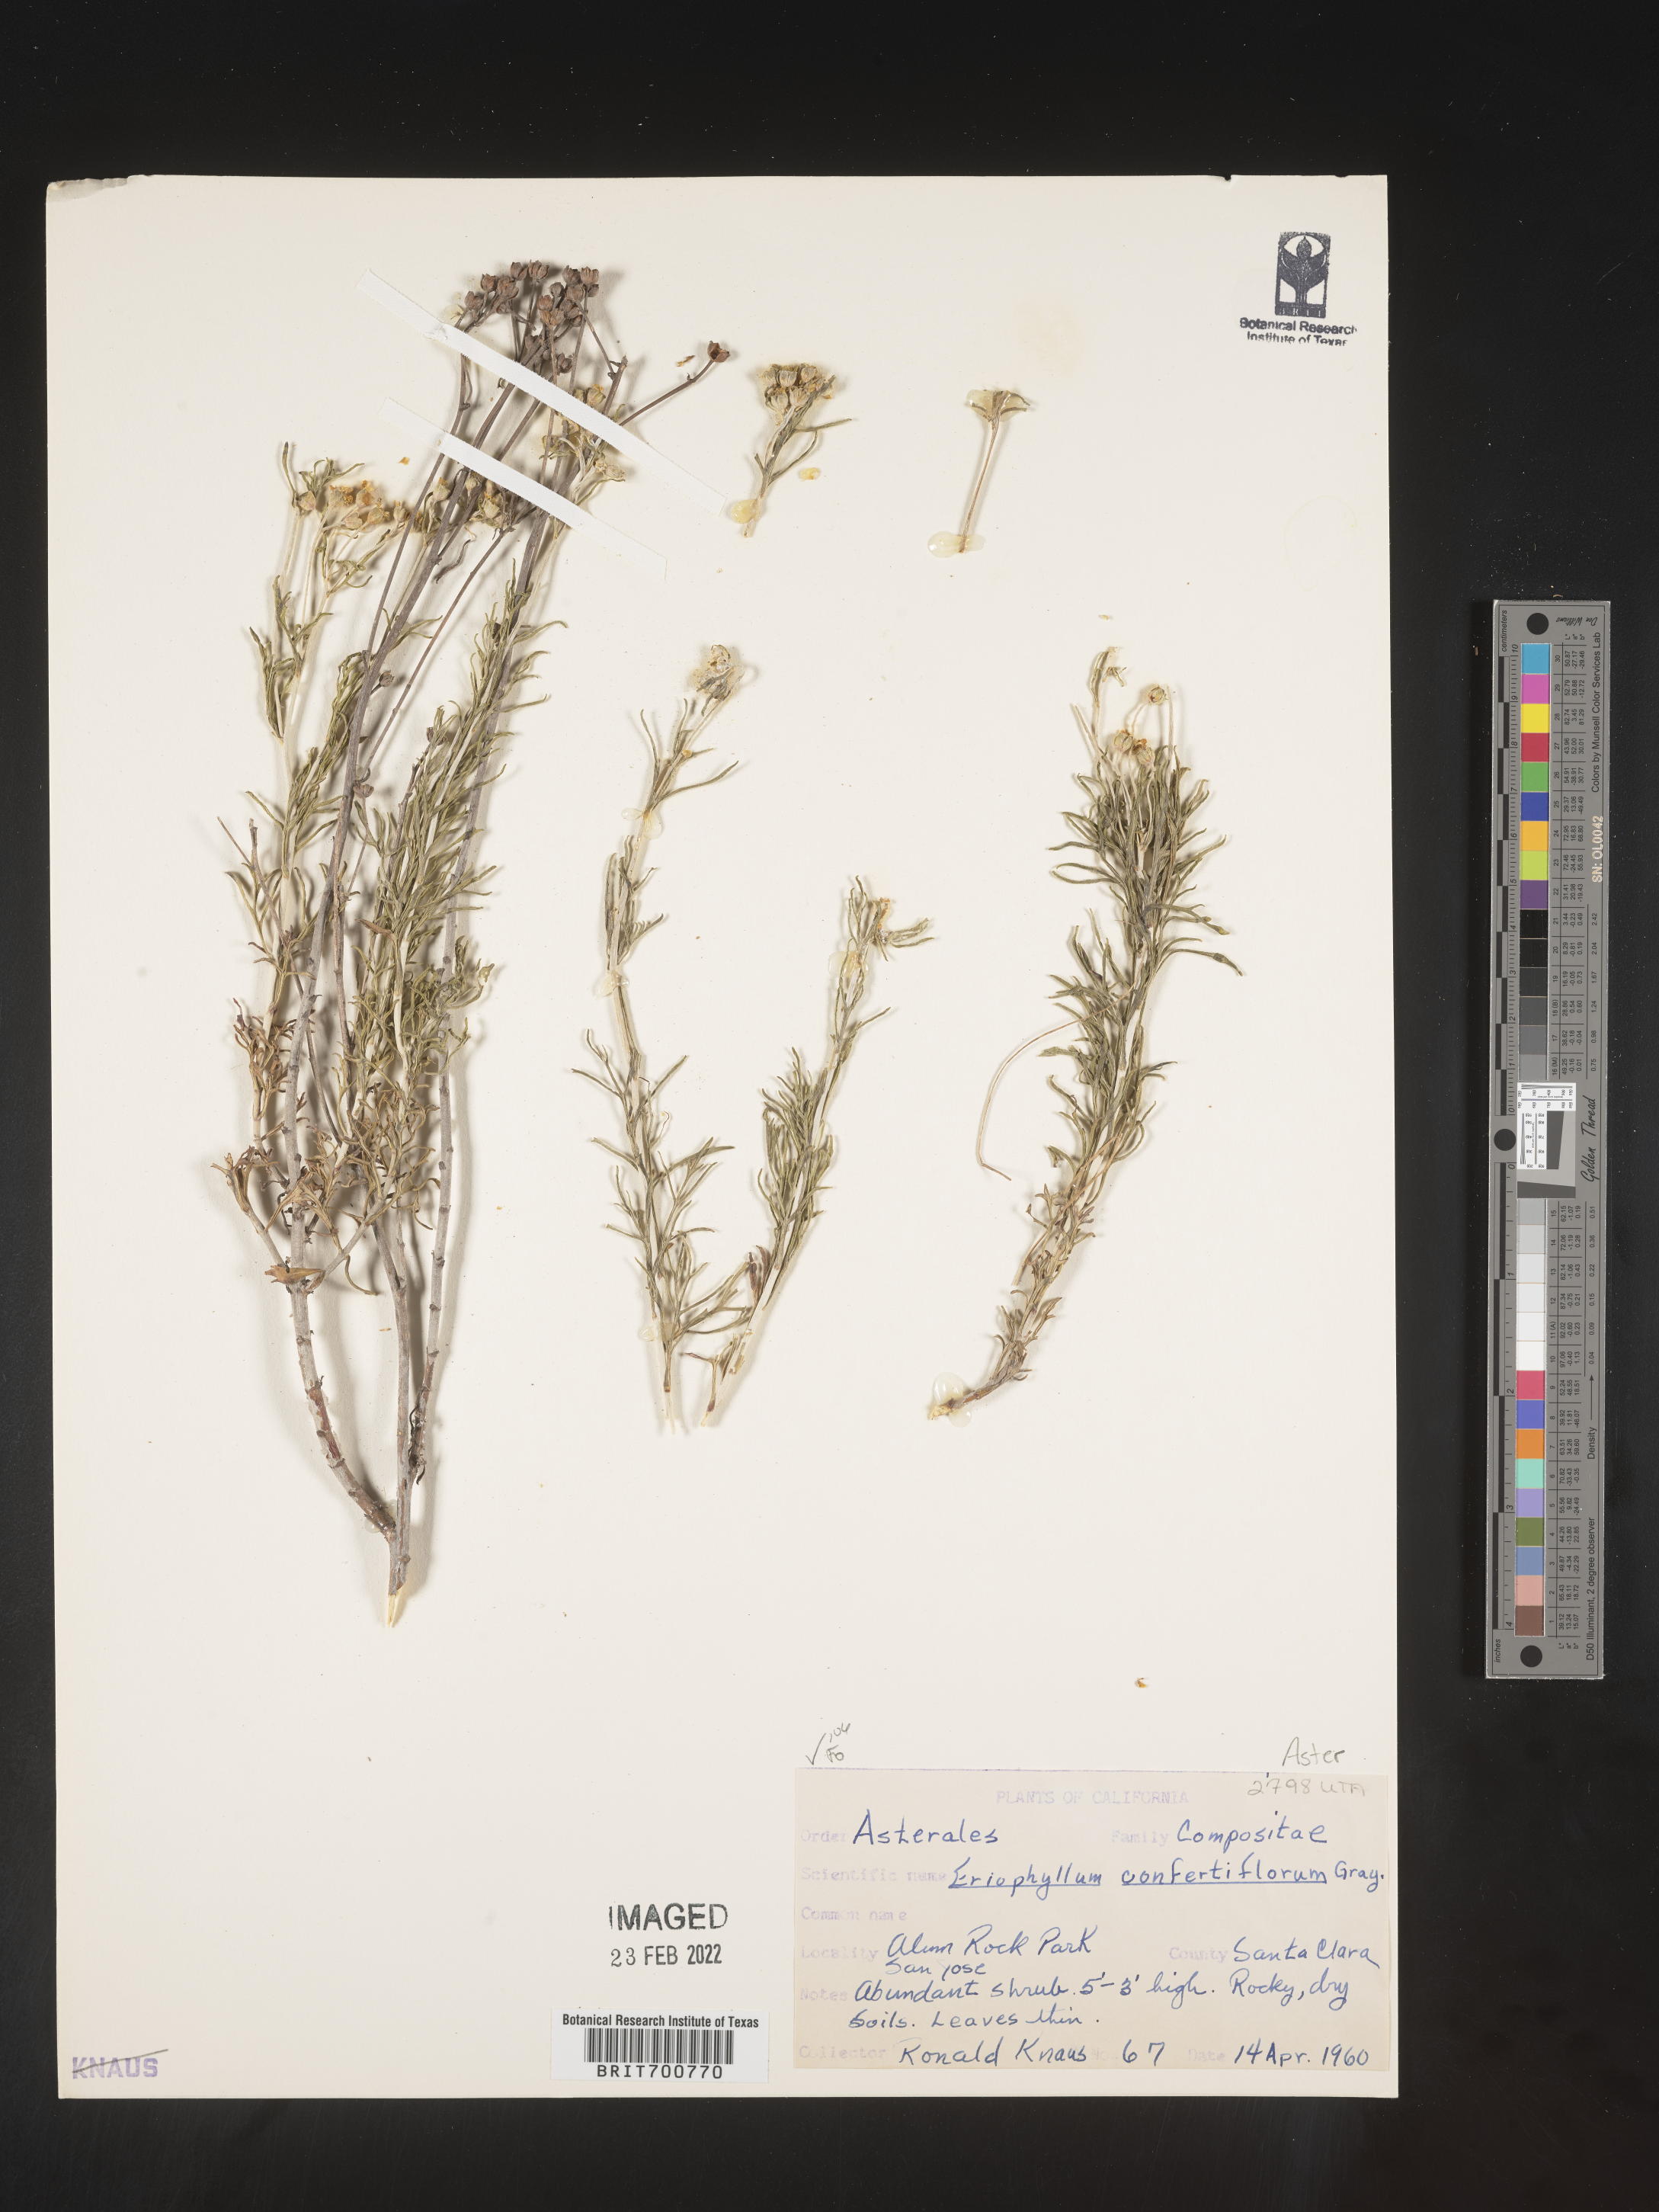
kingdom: Plantae
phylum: Tracheophyta
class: Magnoliopsida
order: Asterales
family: Asteraceae
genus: Eriophyllum
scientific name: Eriophyllum confertiflorum
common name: Golden-yarrow
